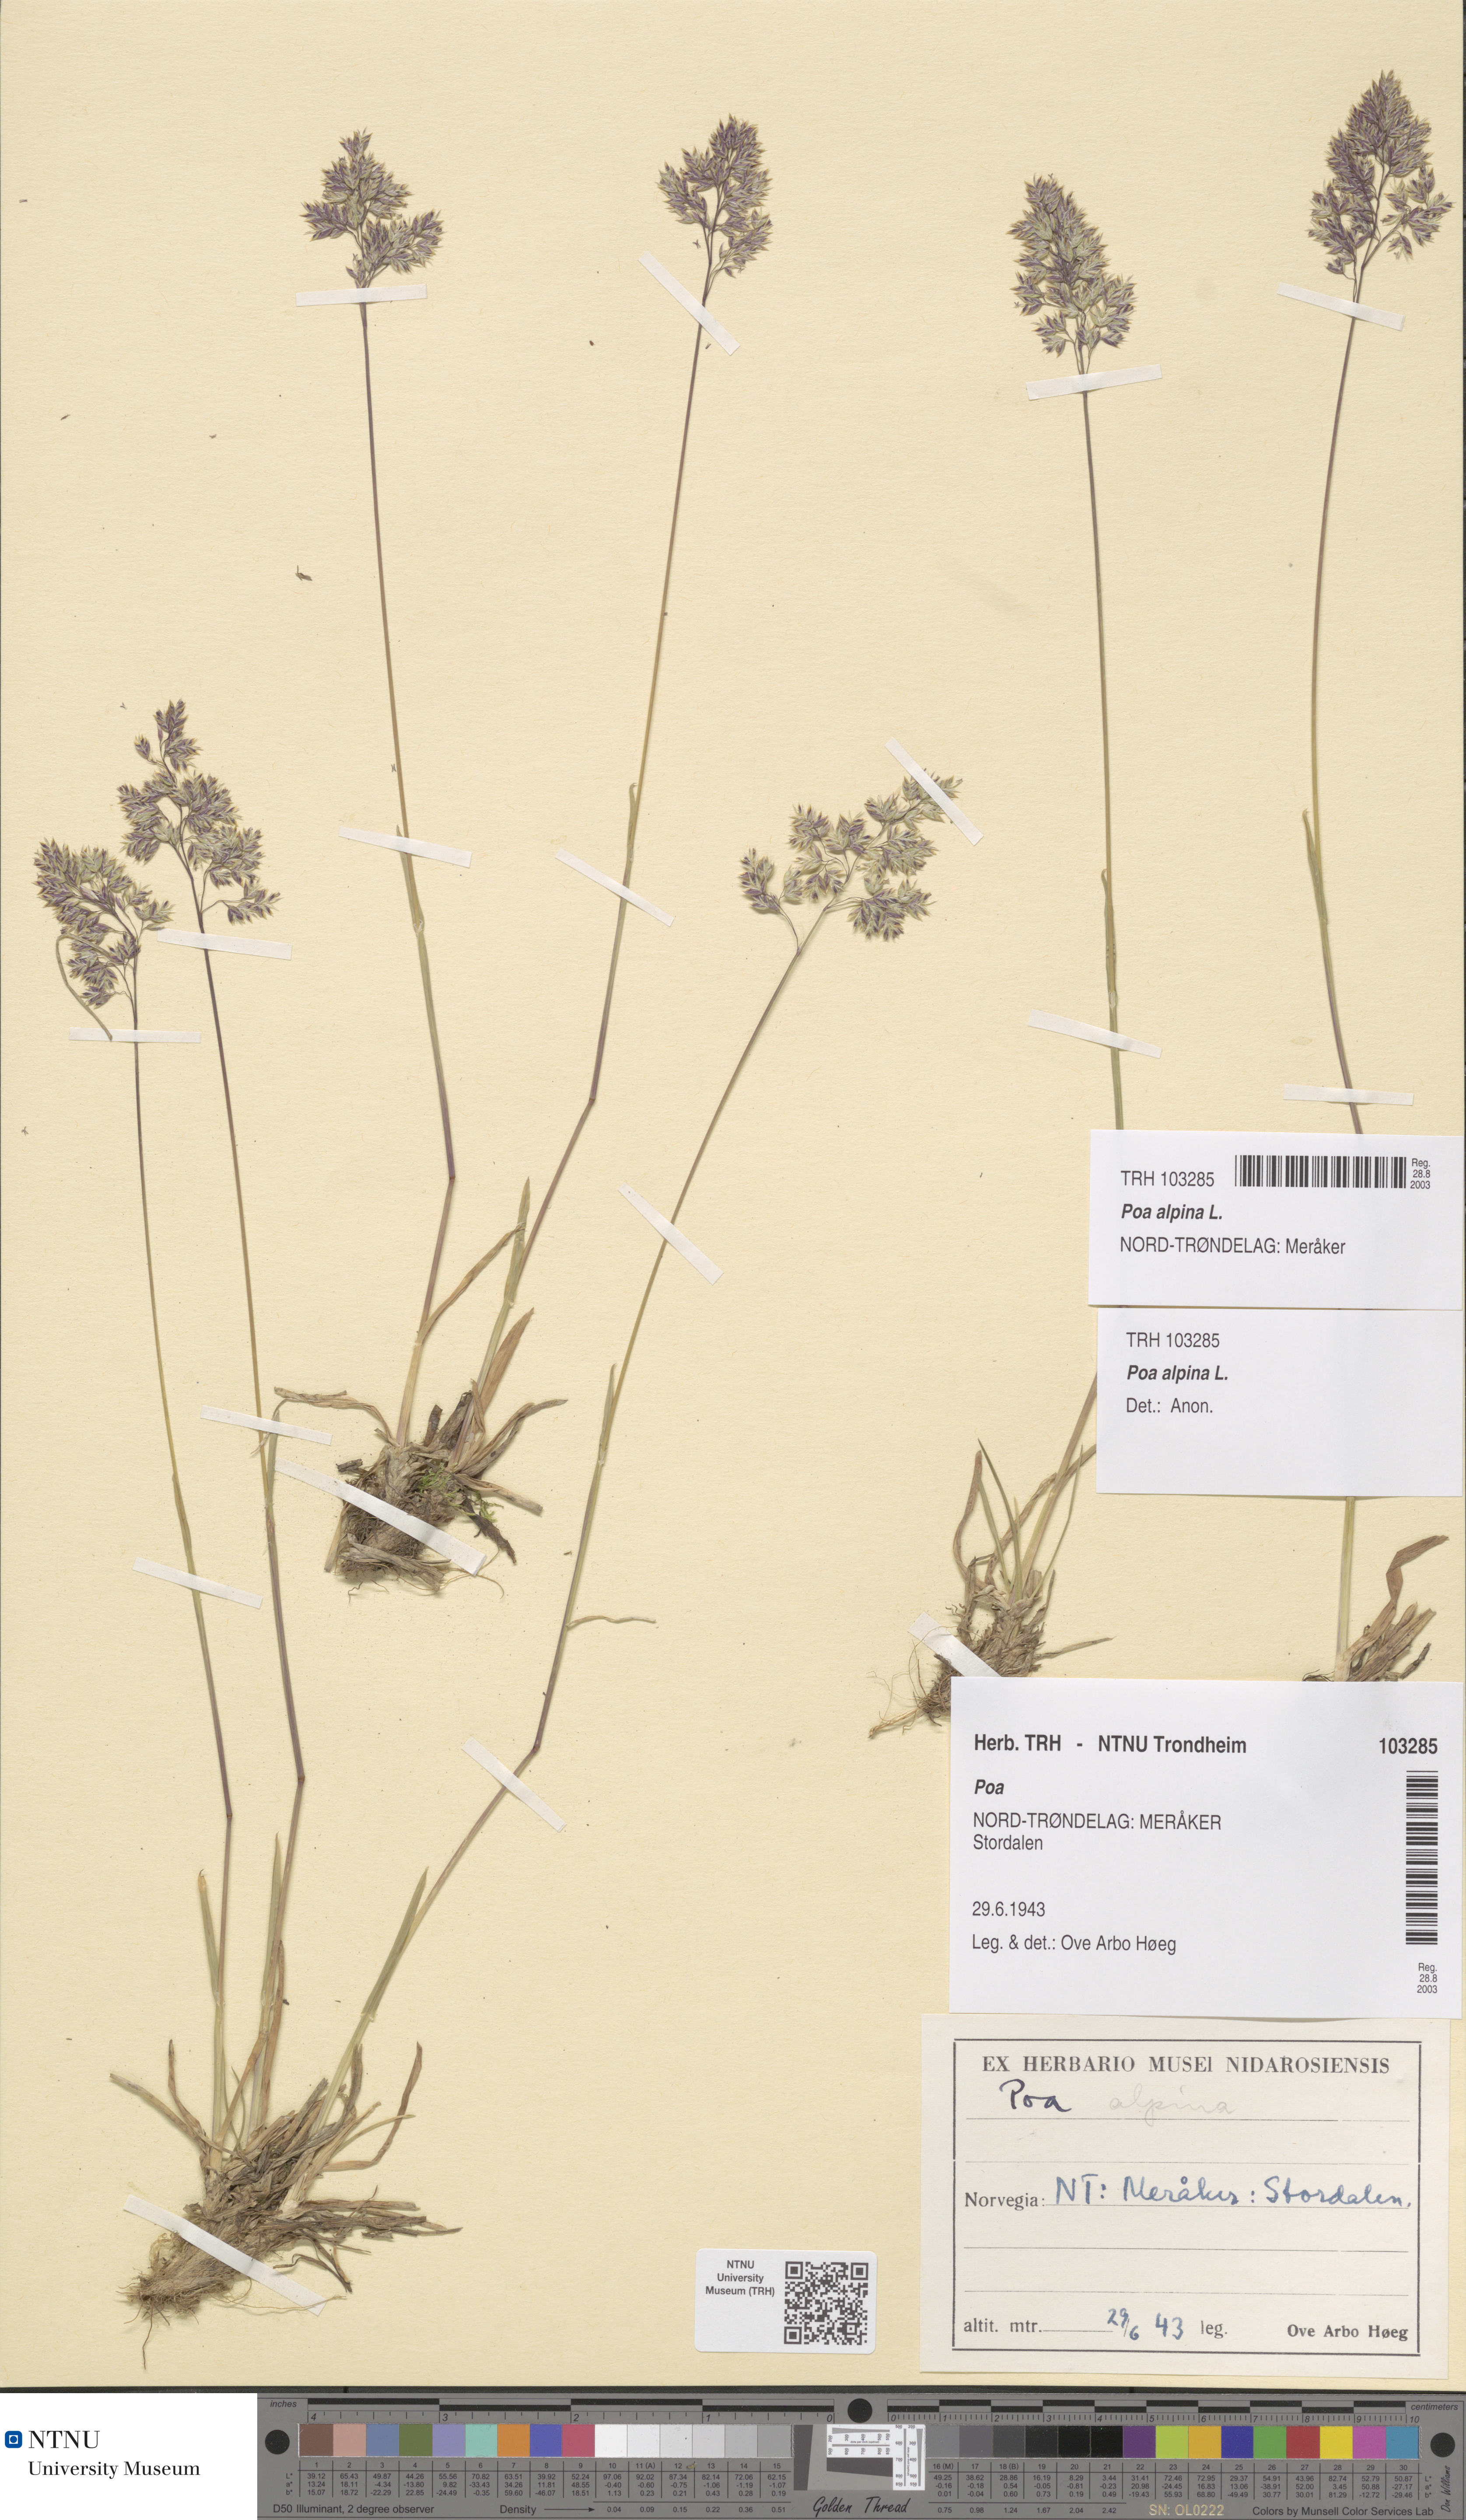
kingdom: Plantae
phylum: Tracheophyta
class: Liliopsida
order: Poales
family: Poaceae
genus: Poa
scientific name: Poa alpina
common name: Alpine bluegrass
